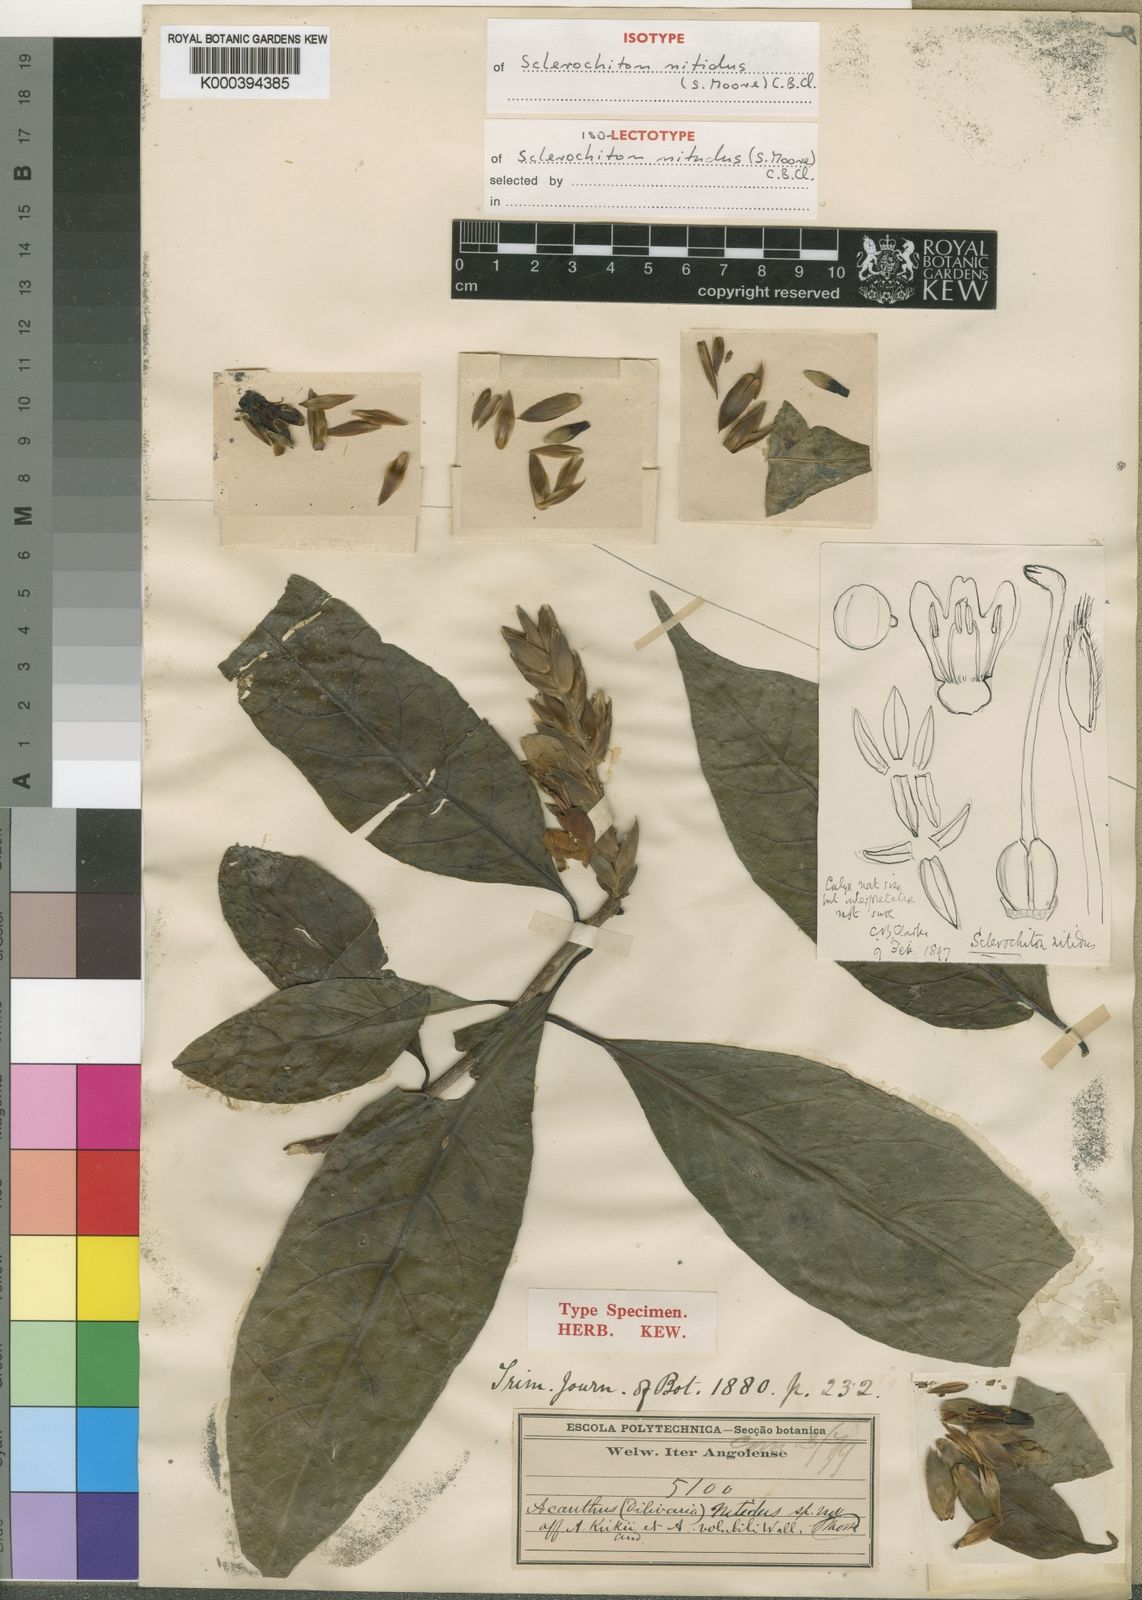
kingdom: Plantae
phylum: Tracheophyta
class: Magnoliopsida
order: Lamiales
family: Acanthaceae
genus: Sclerochiton
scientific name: Sclerochiton nitidus
